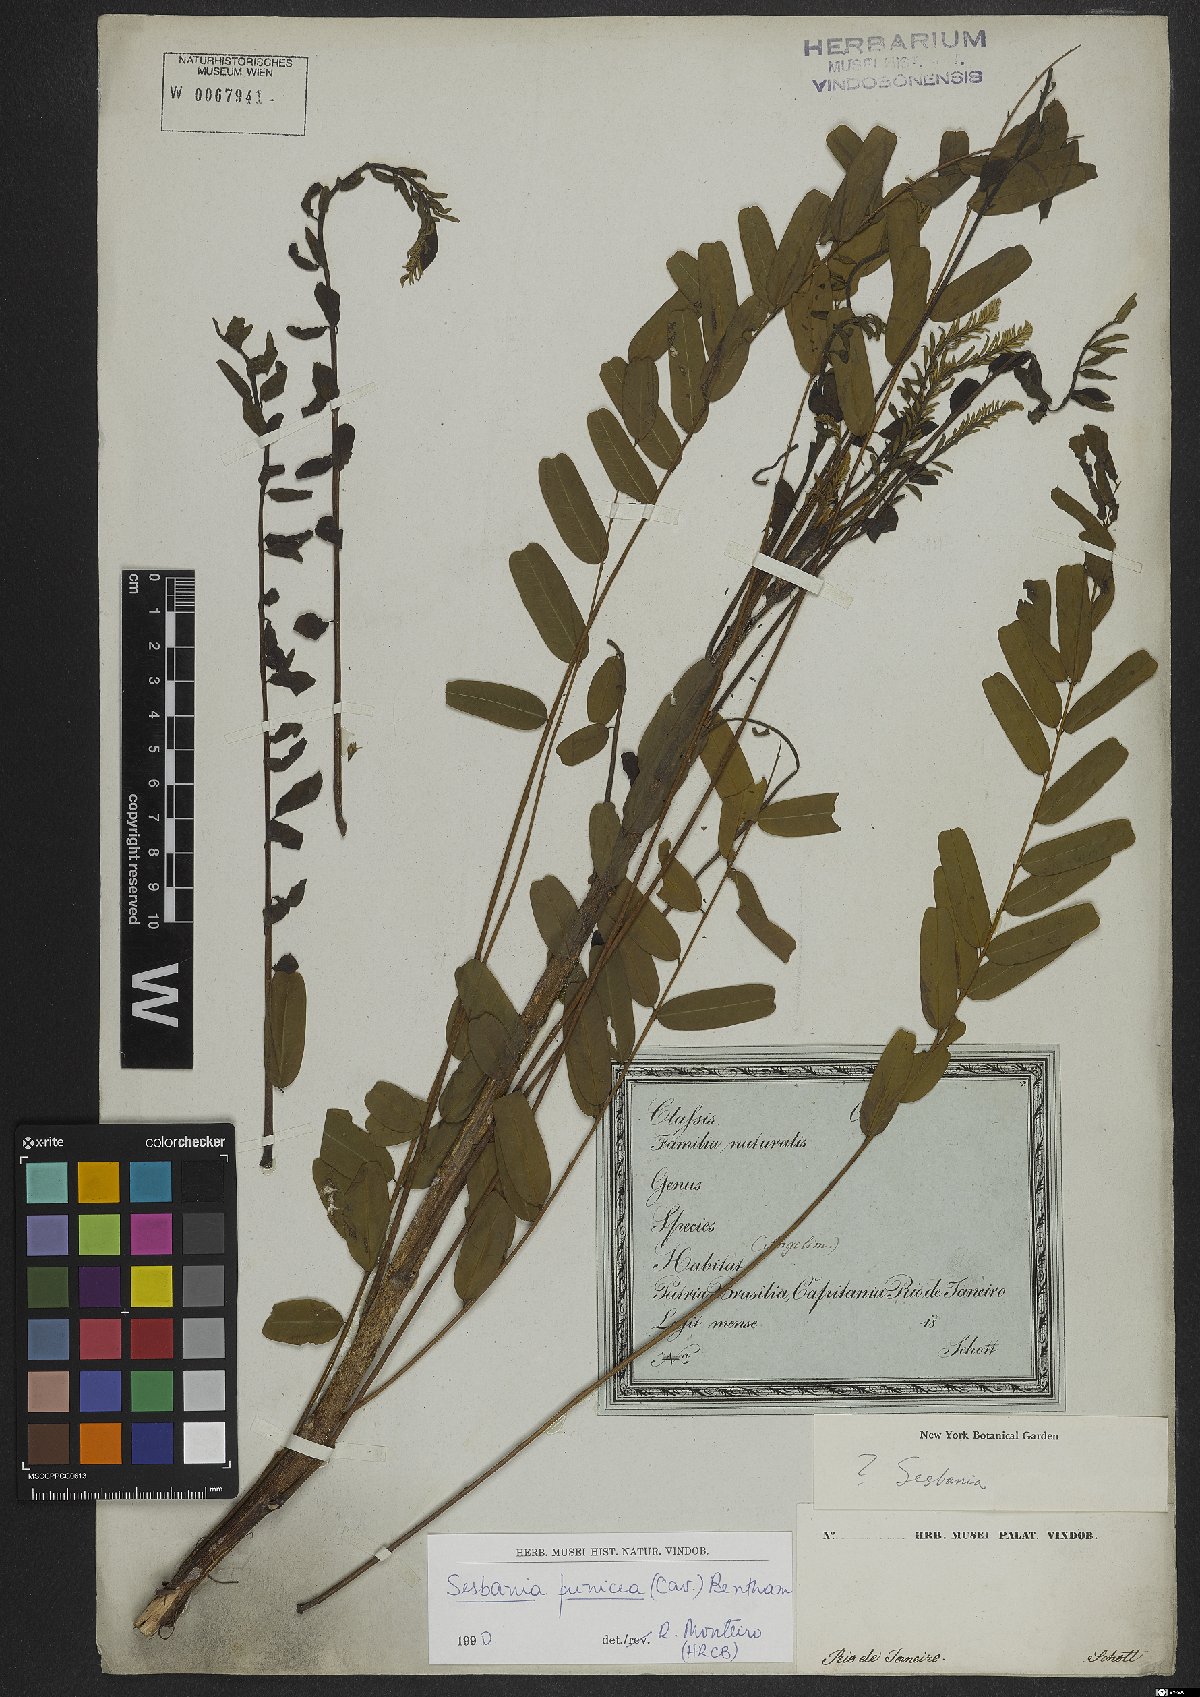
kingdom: Plantae
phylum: Tracheophyta
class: Magnoliopsida
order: Fabales
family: Fabaceae
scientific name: Fabaceae
